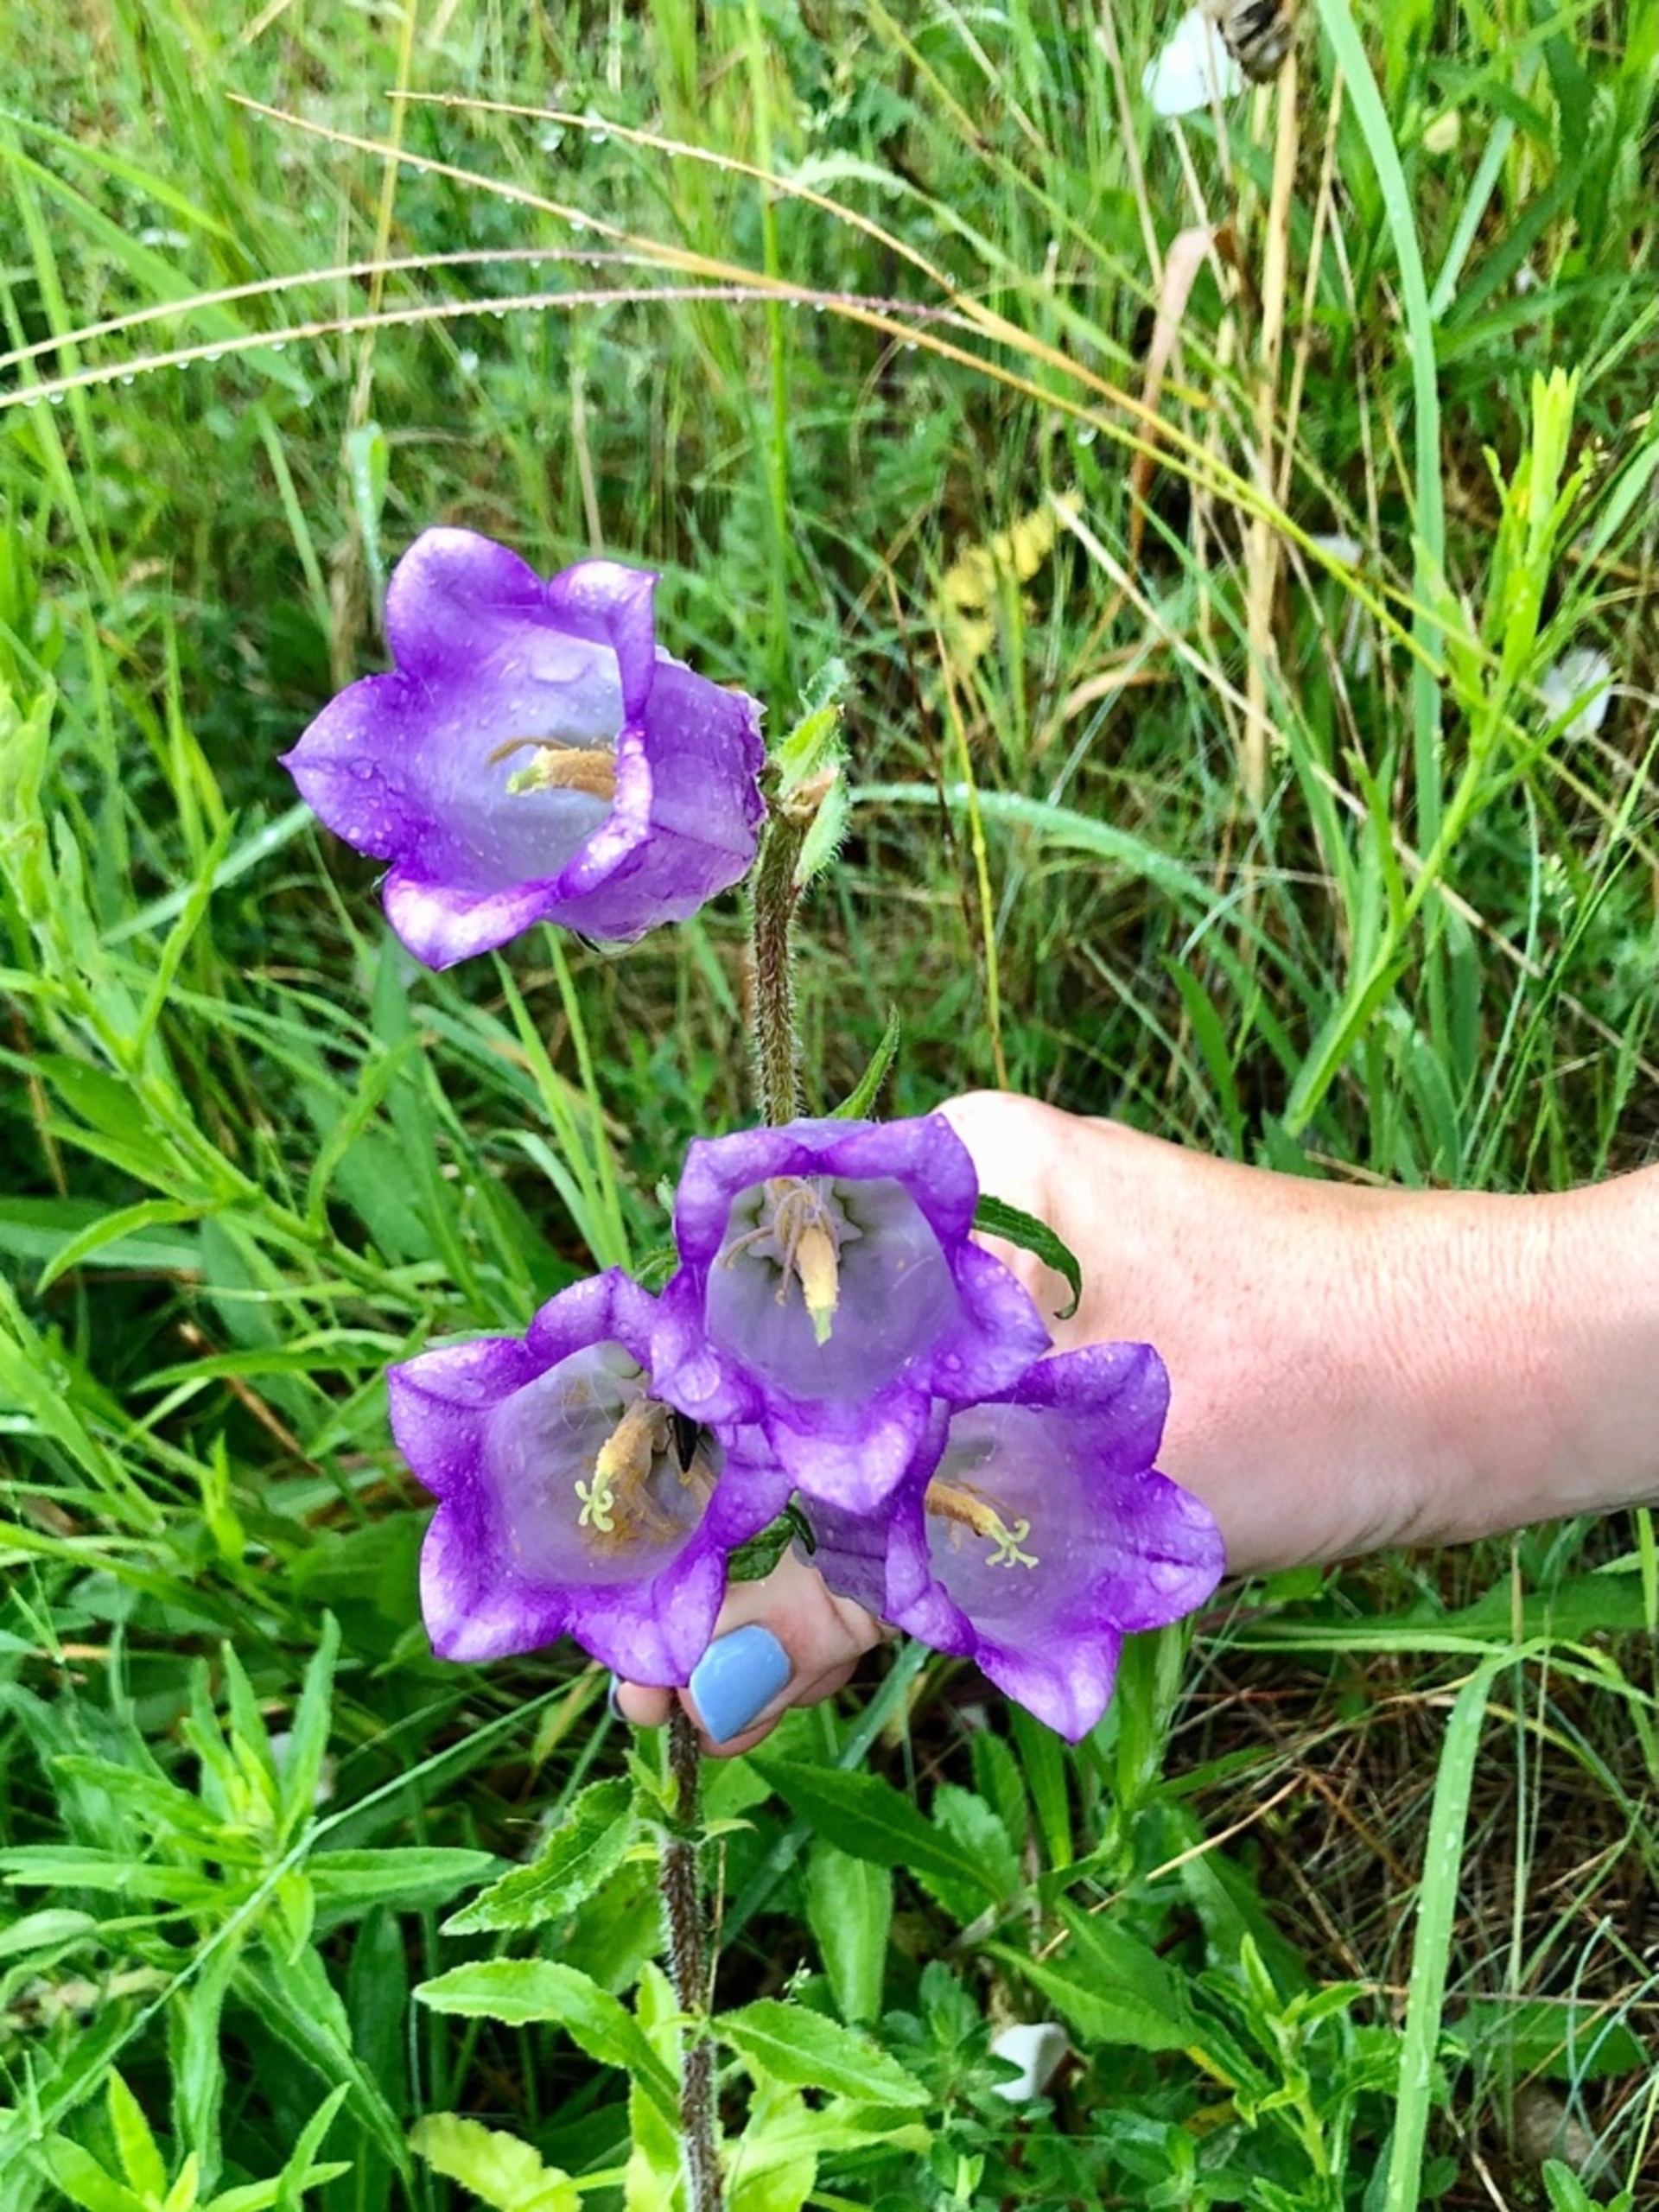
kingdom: Plantae
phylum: Tracheophyta
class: Magnoliopsida
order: Asterales
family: Campanulaceae
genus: Campanula
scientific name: Campanula medium
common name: Marie-klokke
